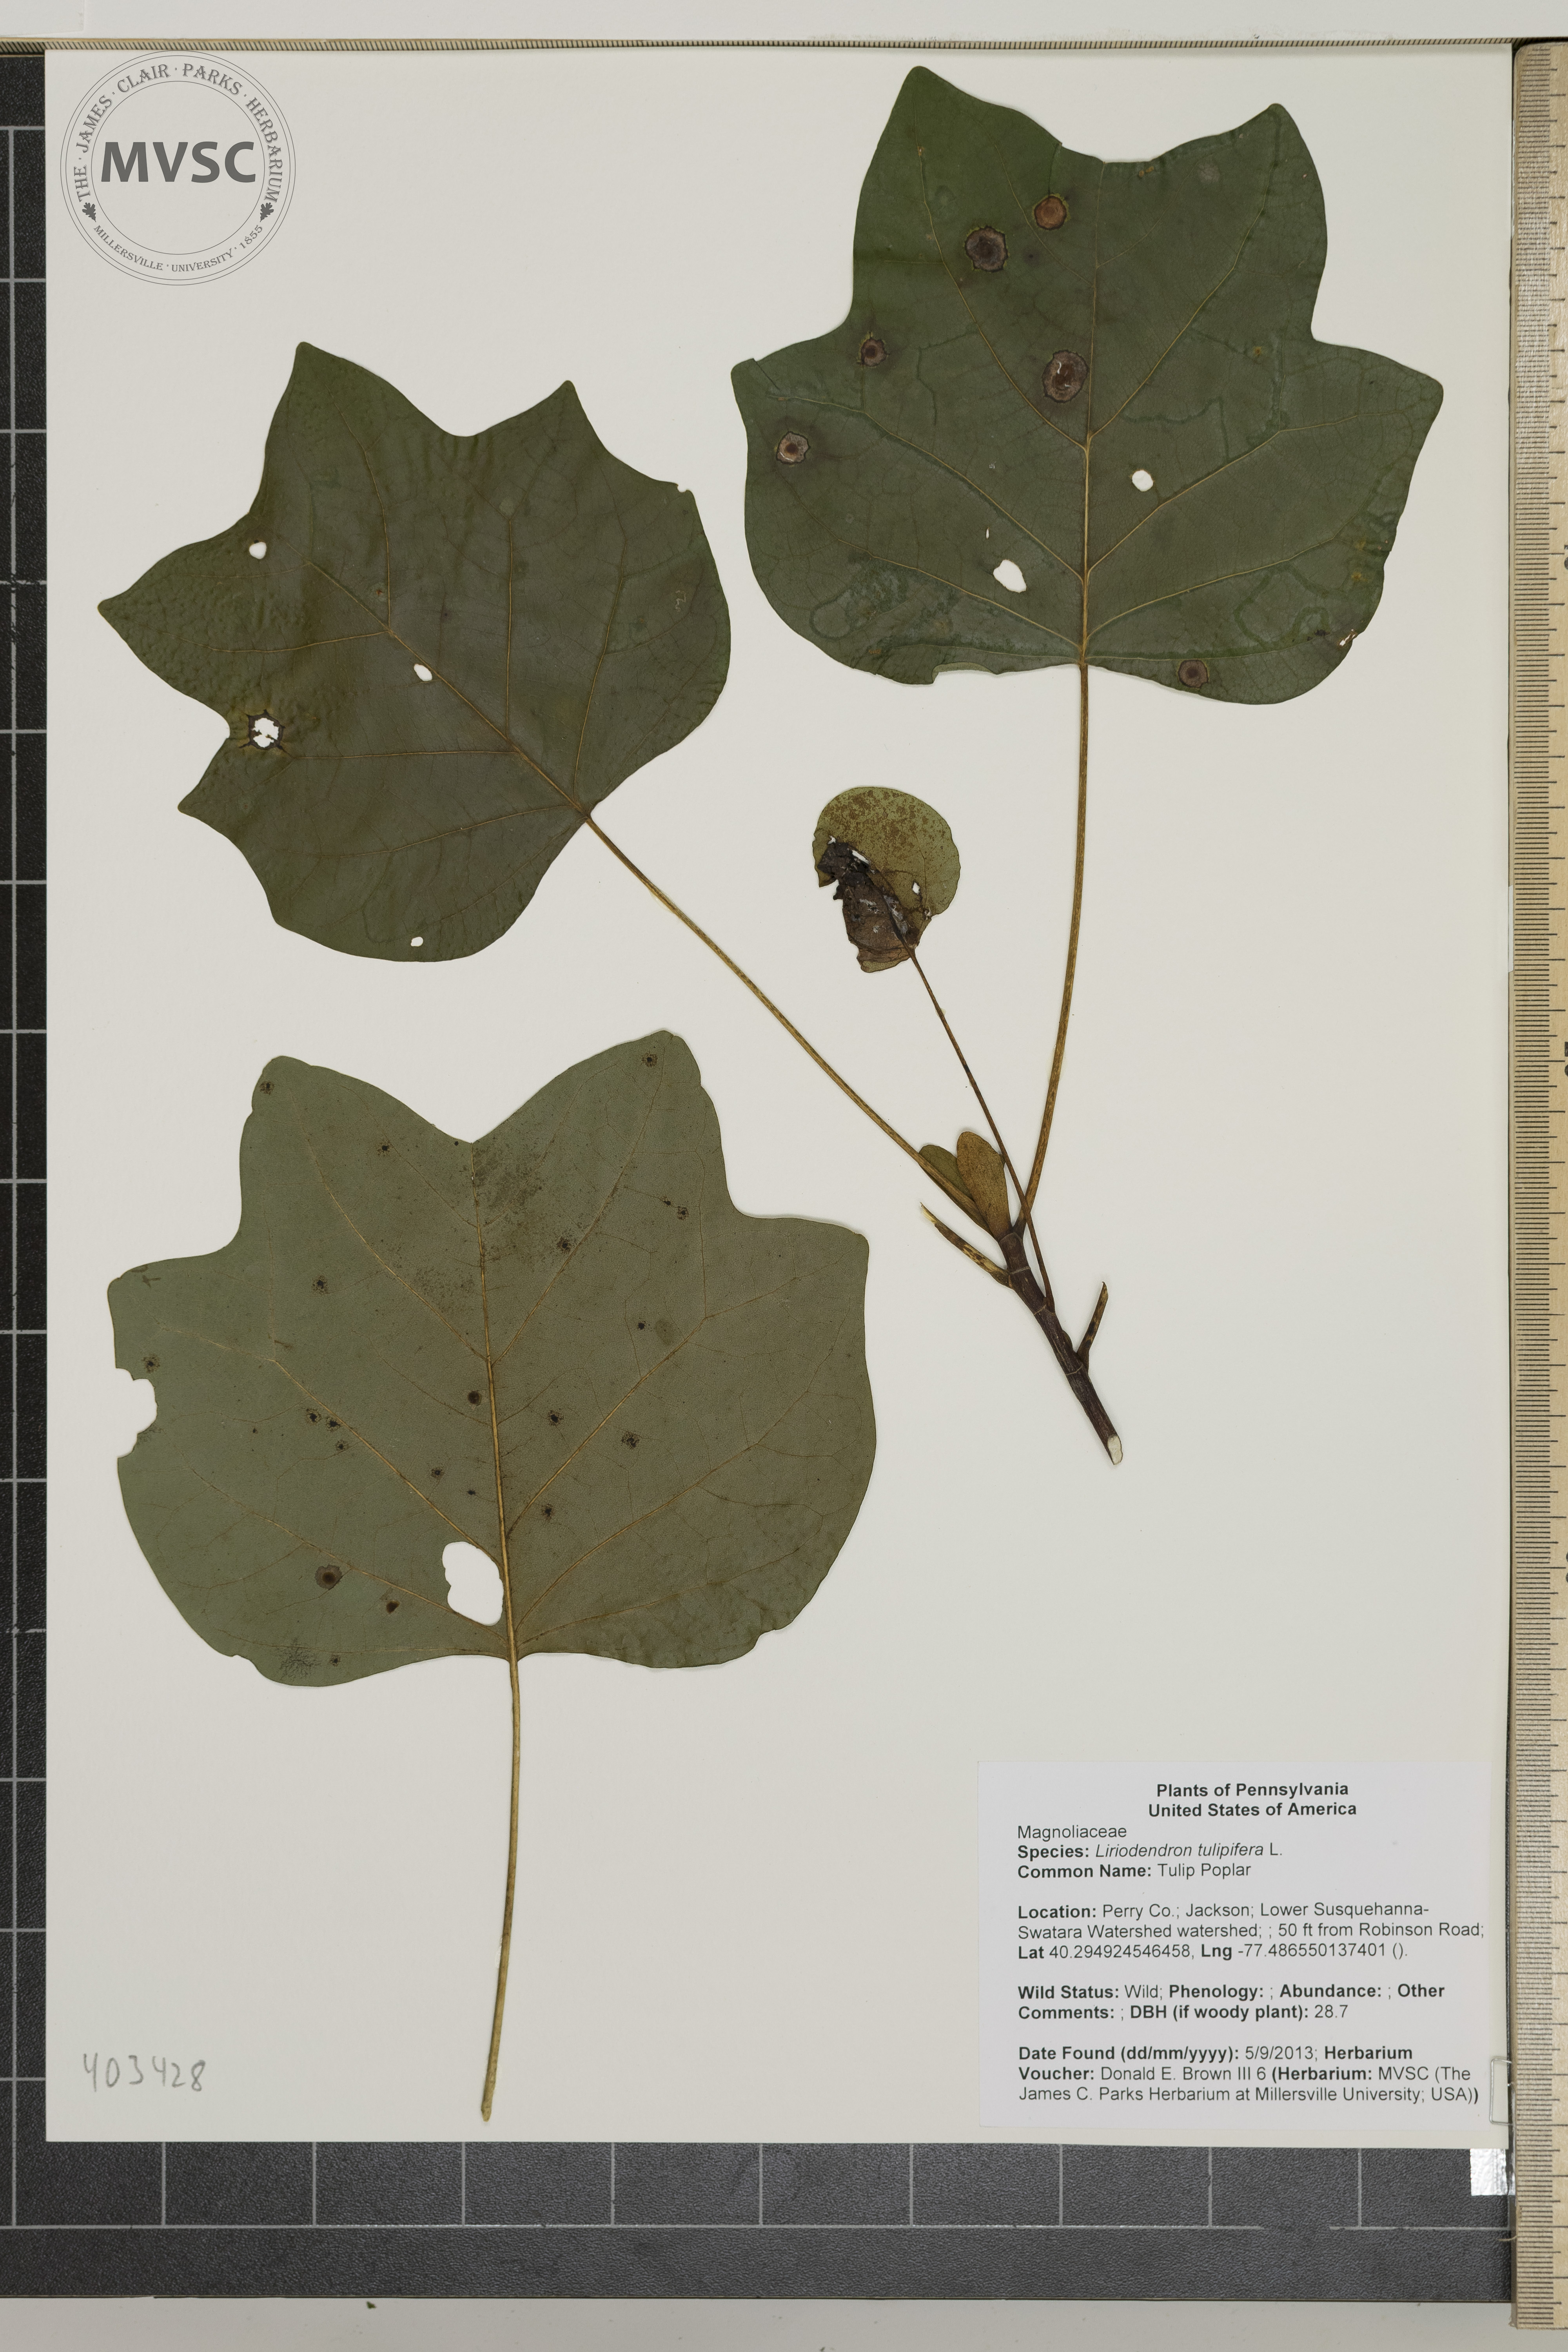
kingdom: Plantae
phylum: Tracheophyta
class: Magnoliopsida
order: Magnoliales
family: Magnoliaceae
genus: Liriodendron
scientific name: Liriodendron tulipifera
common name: Tulip Poplar
